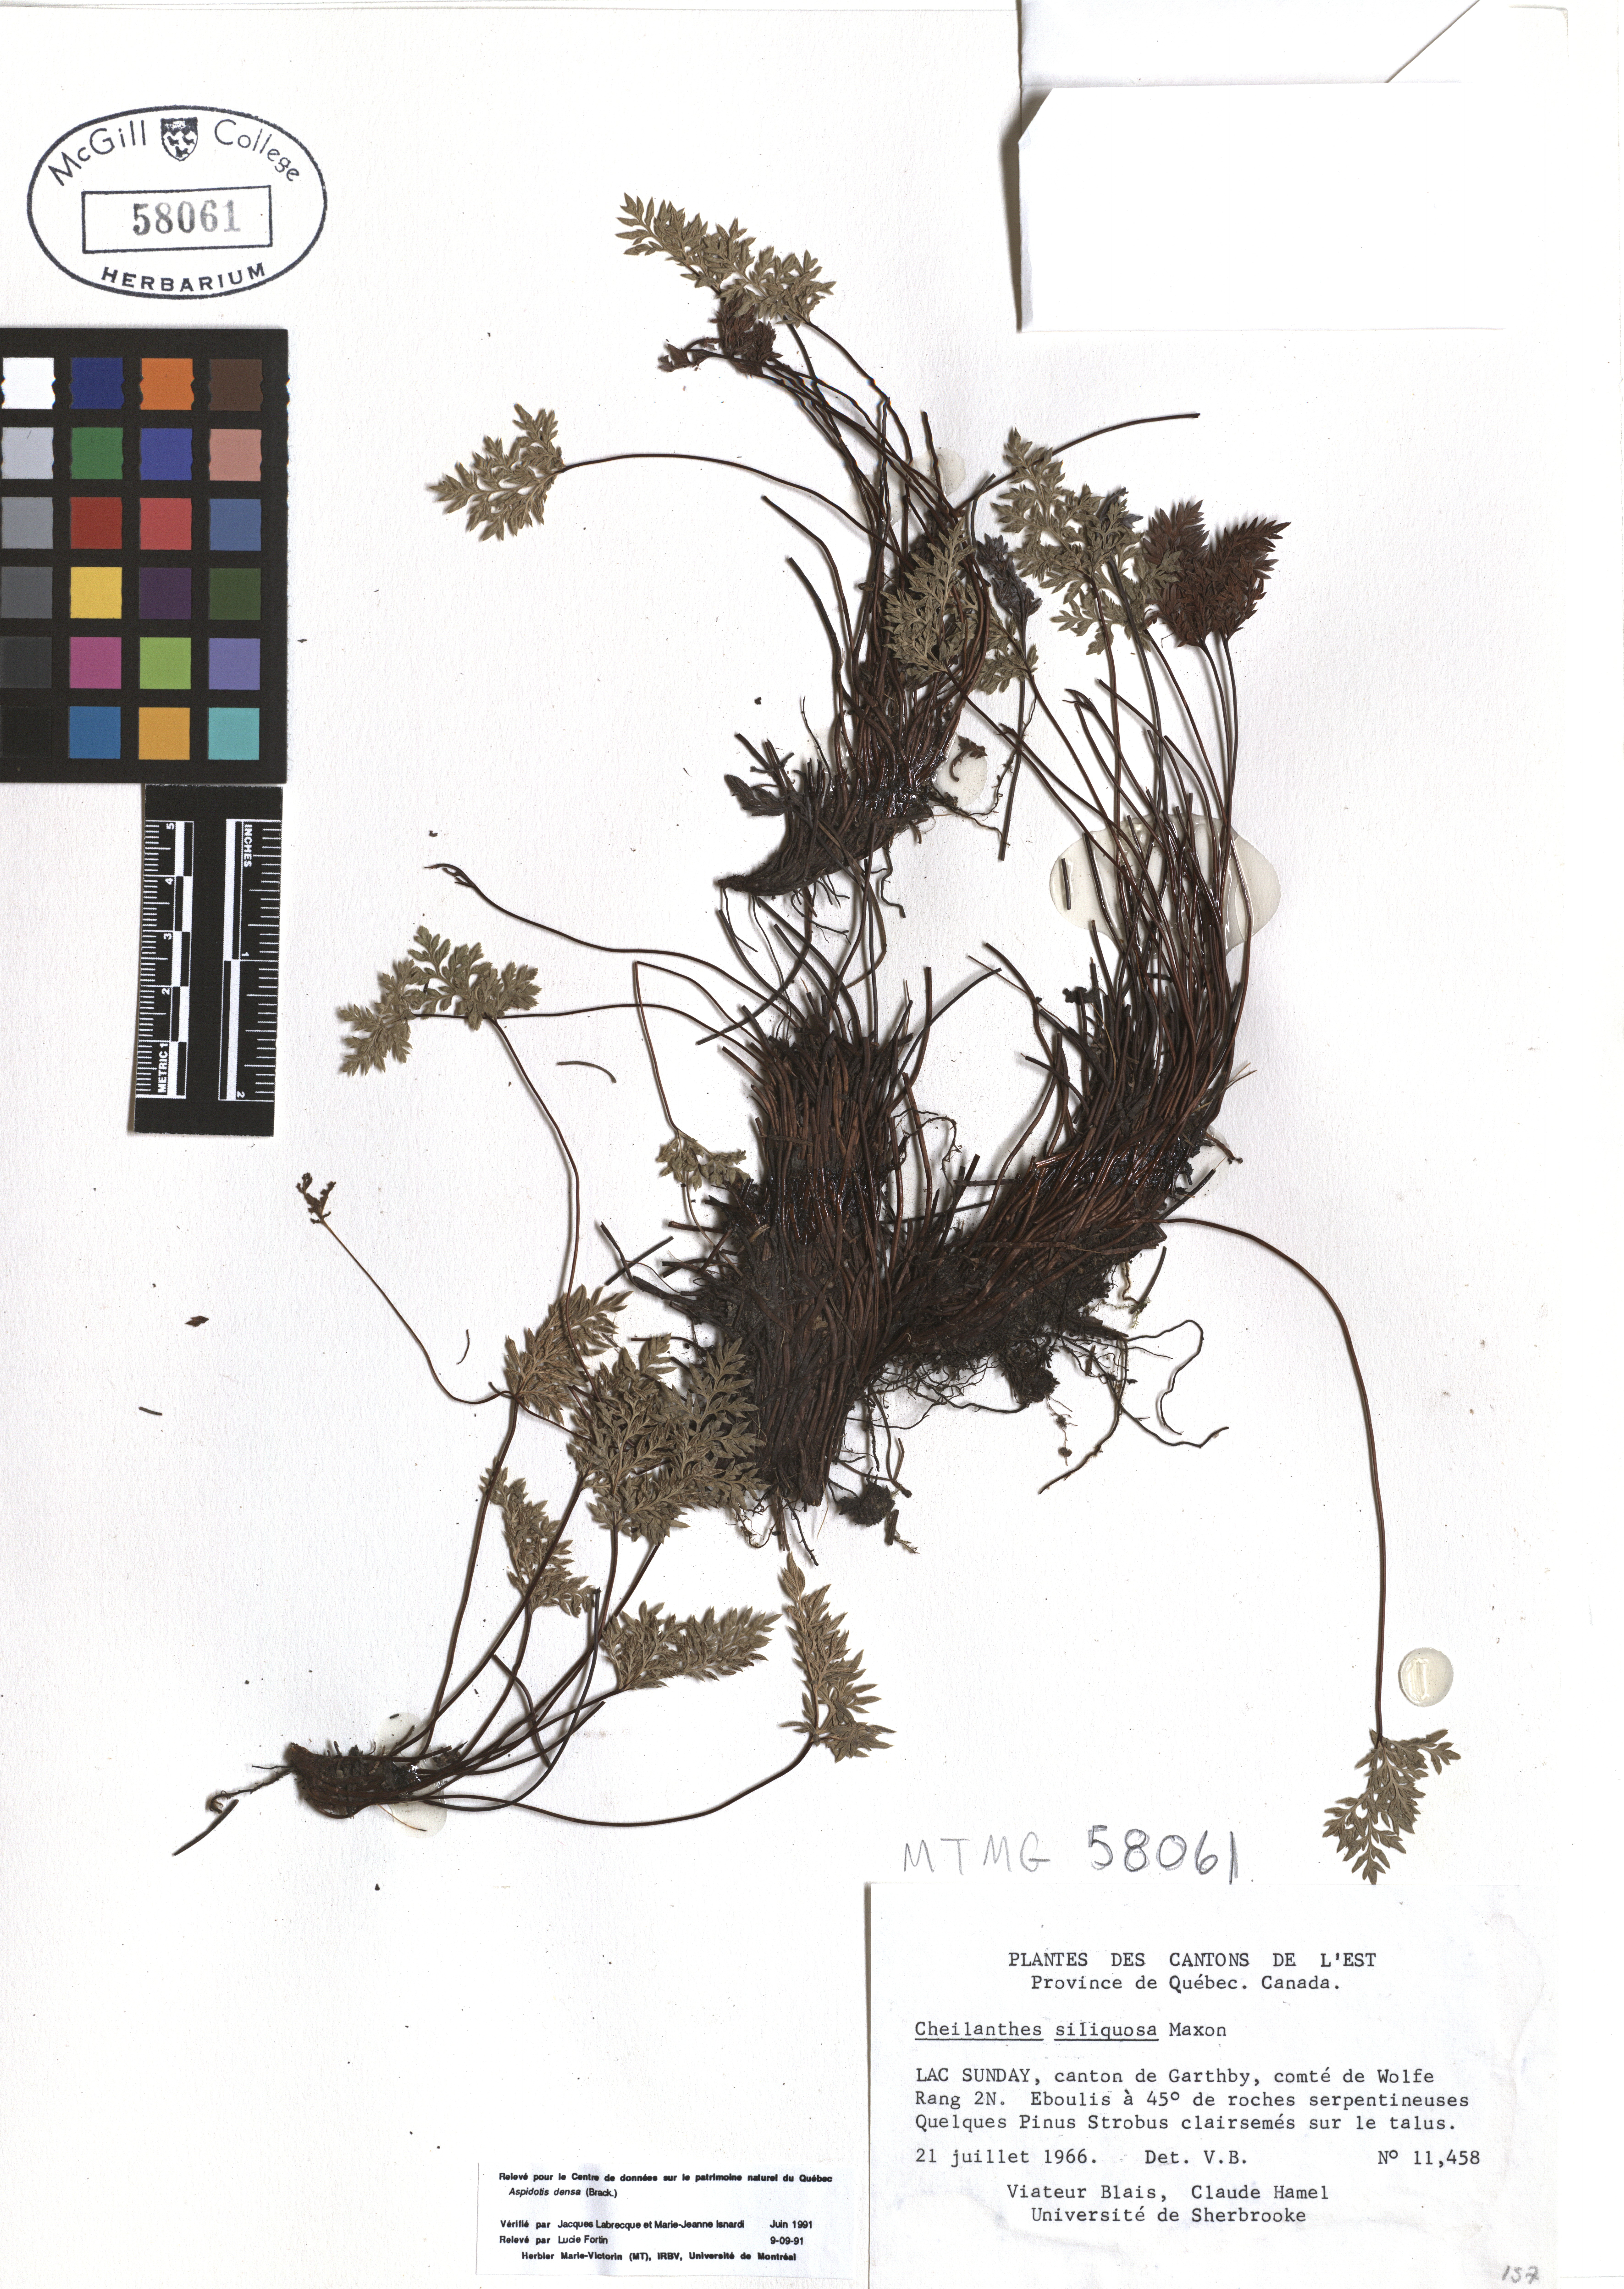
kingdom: Plantae
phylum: Tracheophyta
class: Polypodiopsida
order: Polypodiales
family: Pteridaceae
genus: Aspidotis
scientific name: Aspidotis densa
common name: Indian's dream
